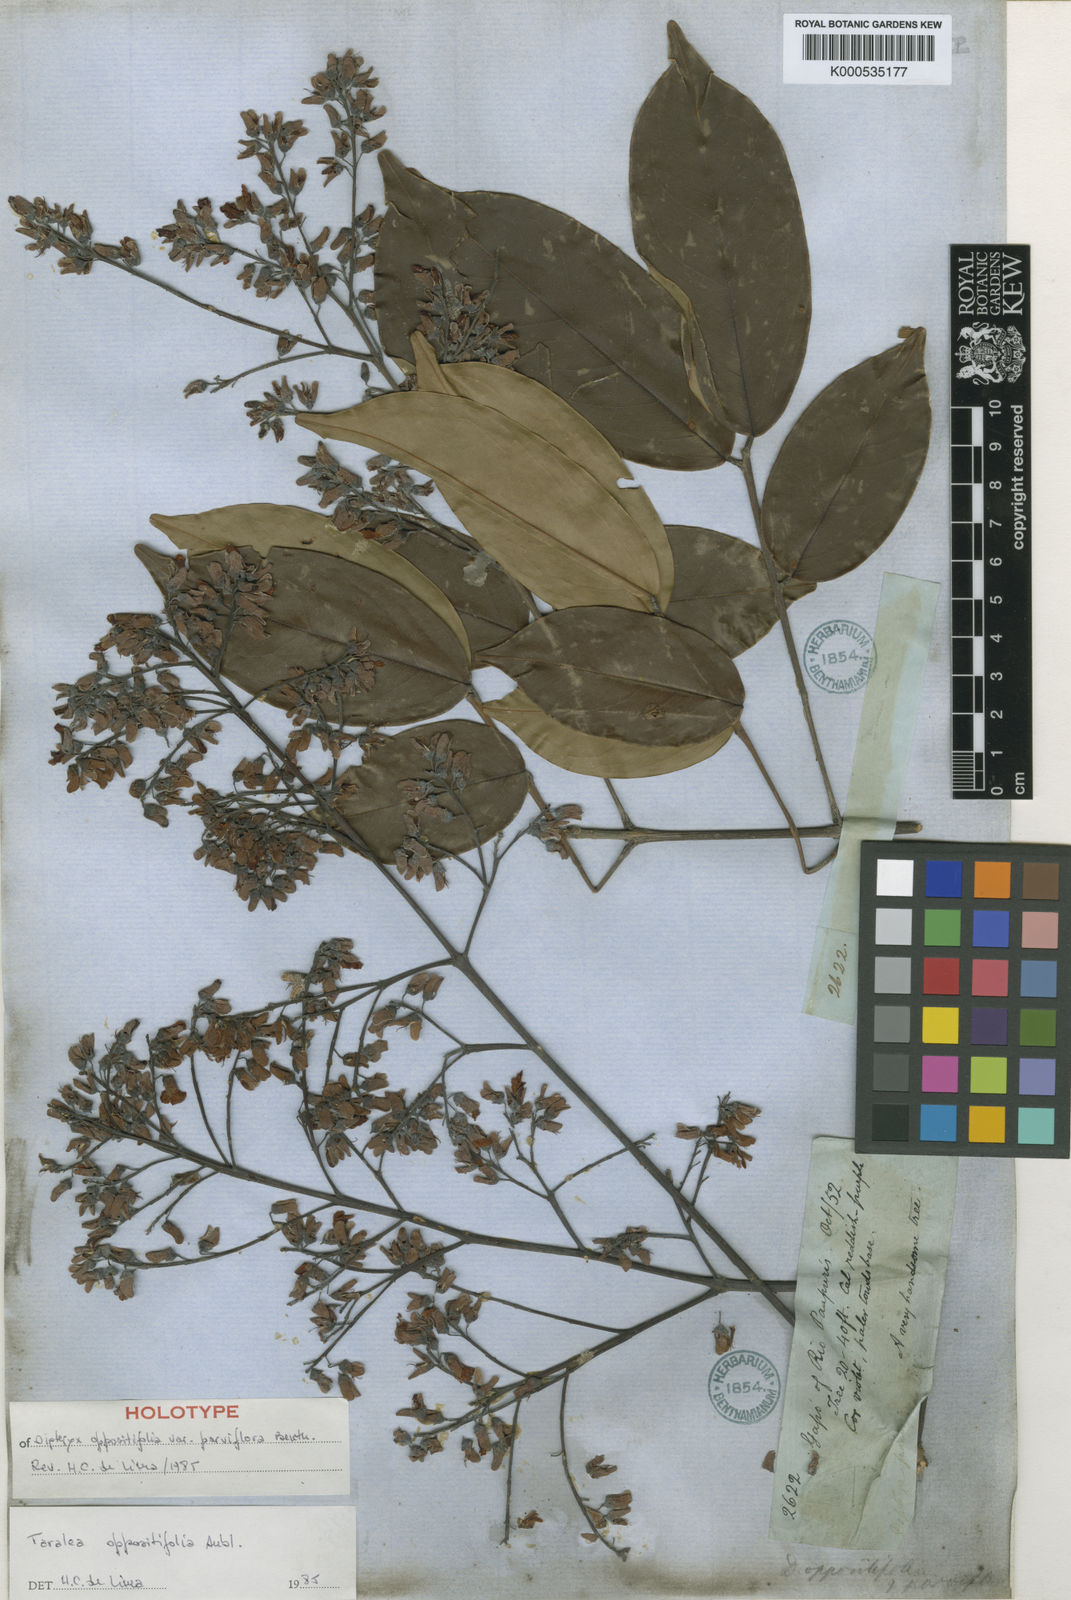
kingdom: Plantae
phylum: Tracheophyta
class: Magnoliopsida
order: Fabales
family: Fabaceae
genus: Taralea
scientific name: Taralea oppositifolia
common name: Tonka
